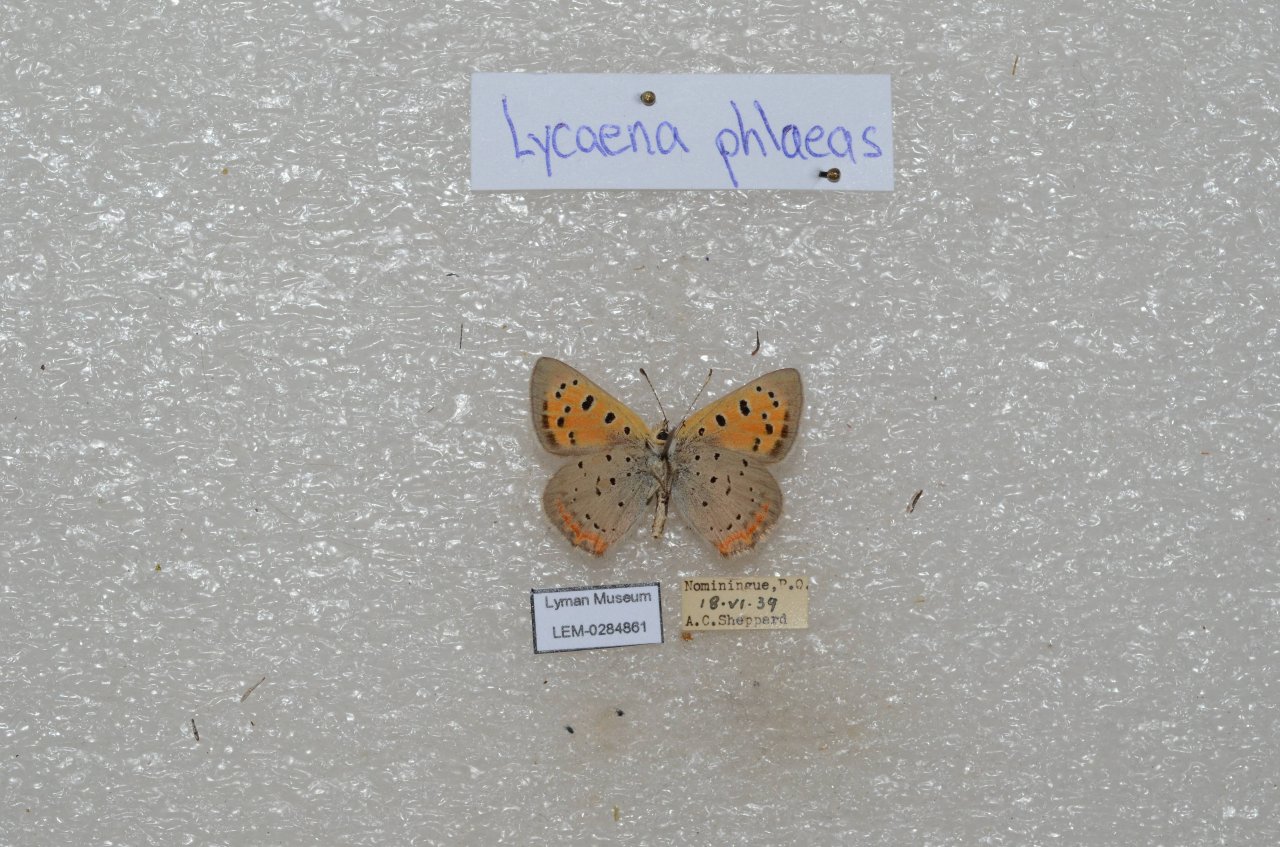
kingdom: Animalia
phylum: Arthropoda
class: Insecta
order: Lepidoptera
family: Lycaenidae
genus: Lycaena
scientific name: Lycaena phlaeas
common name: American Copper
